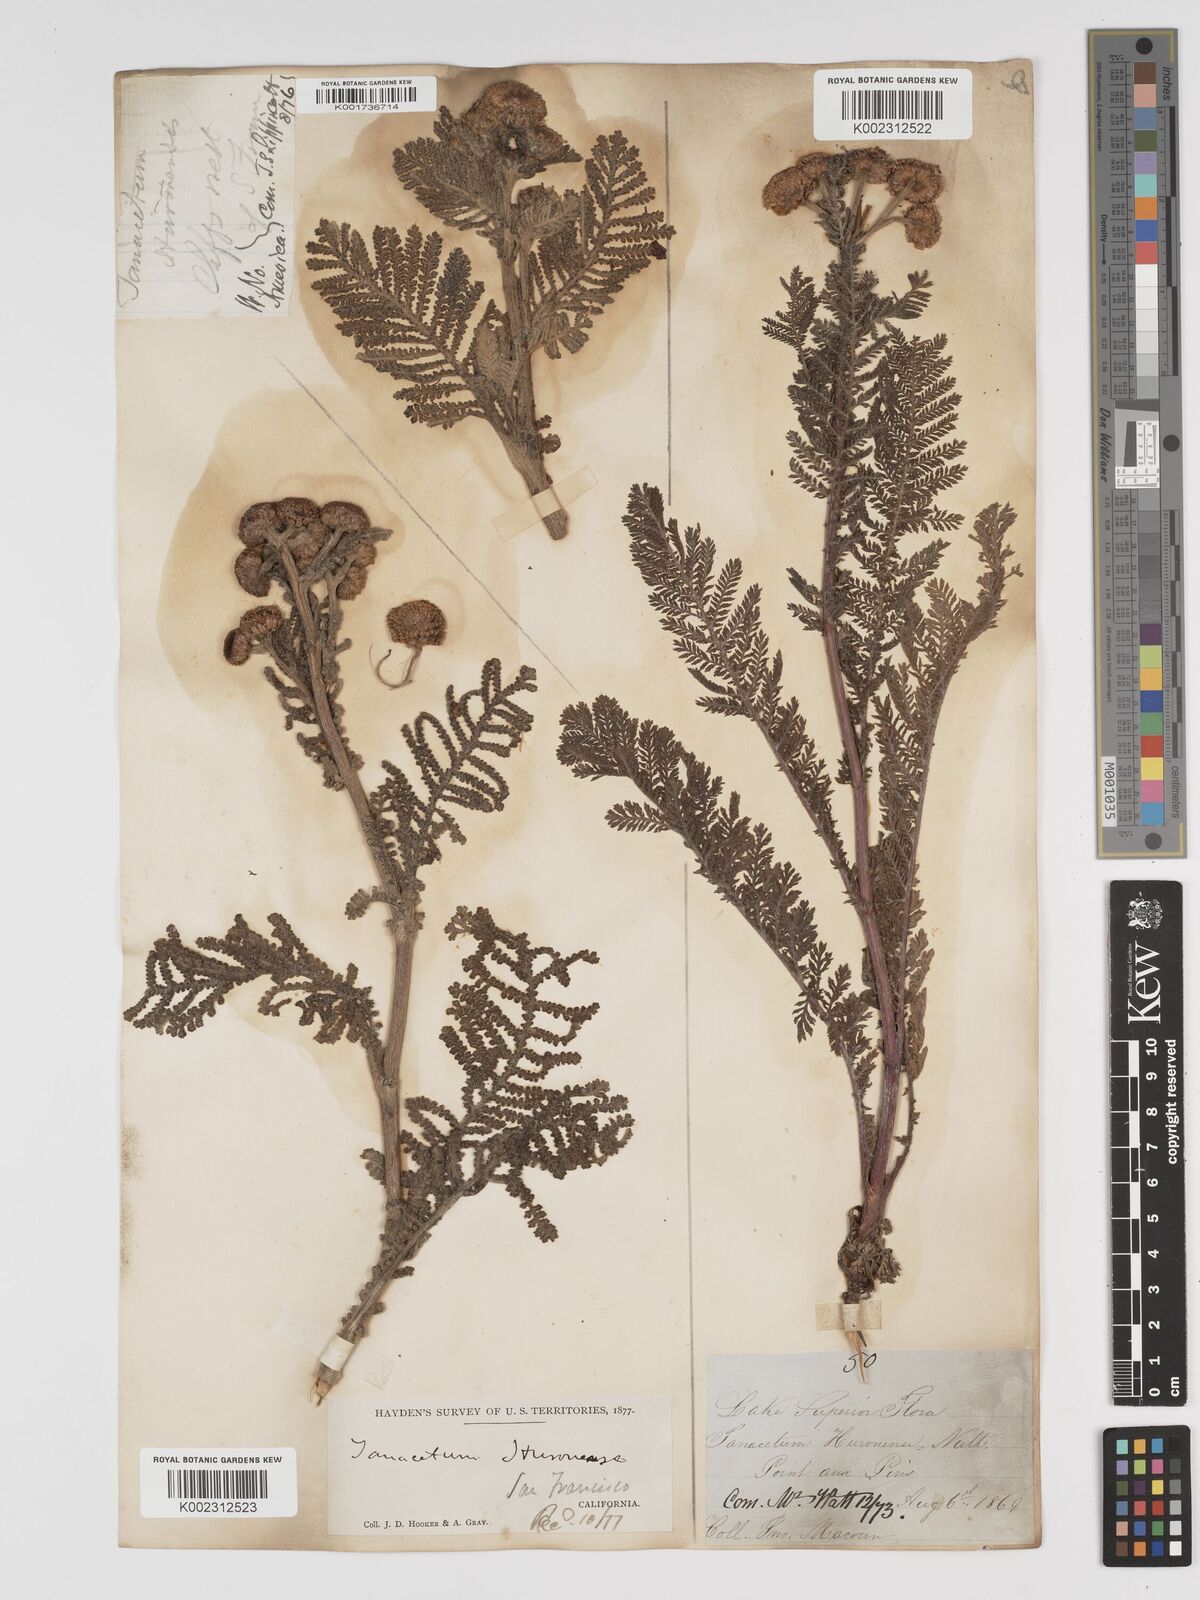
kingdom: Plantae
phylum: Tracheophyta
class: Magnoliopsida
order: Asterales
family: Asteraceae
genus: Tanacetum
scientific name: Tanacetum bipinnatum
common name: Dwarf tansy
